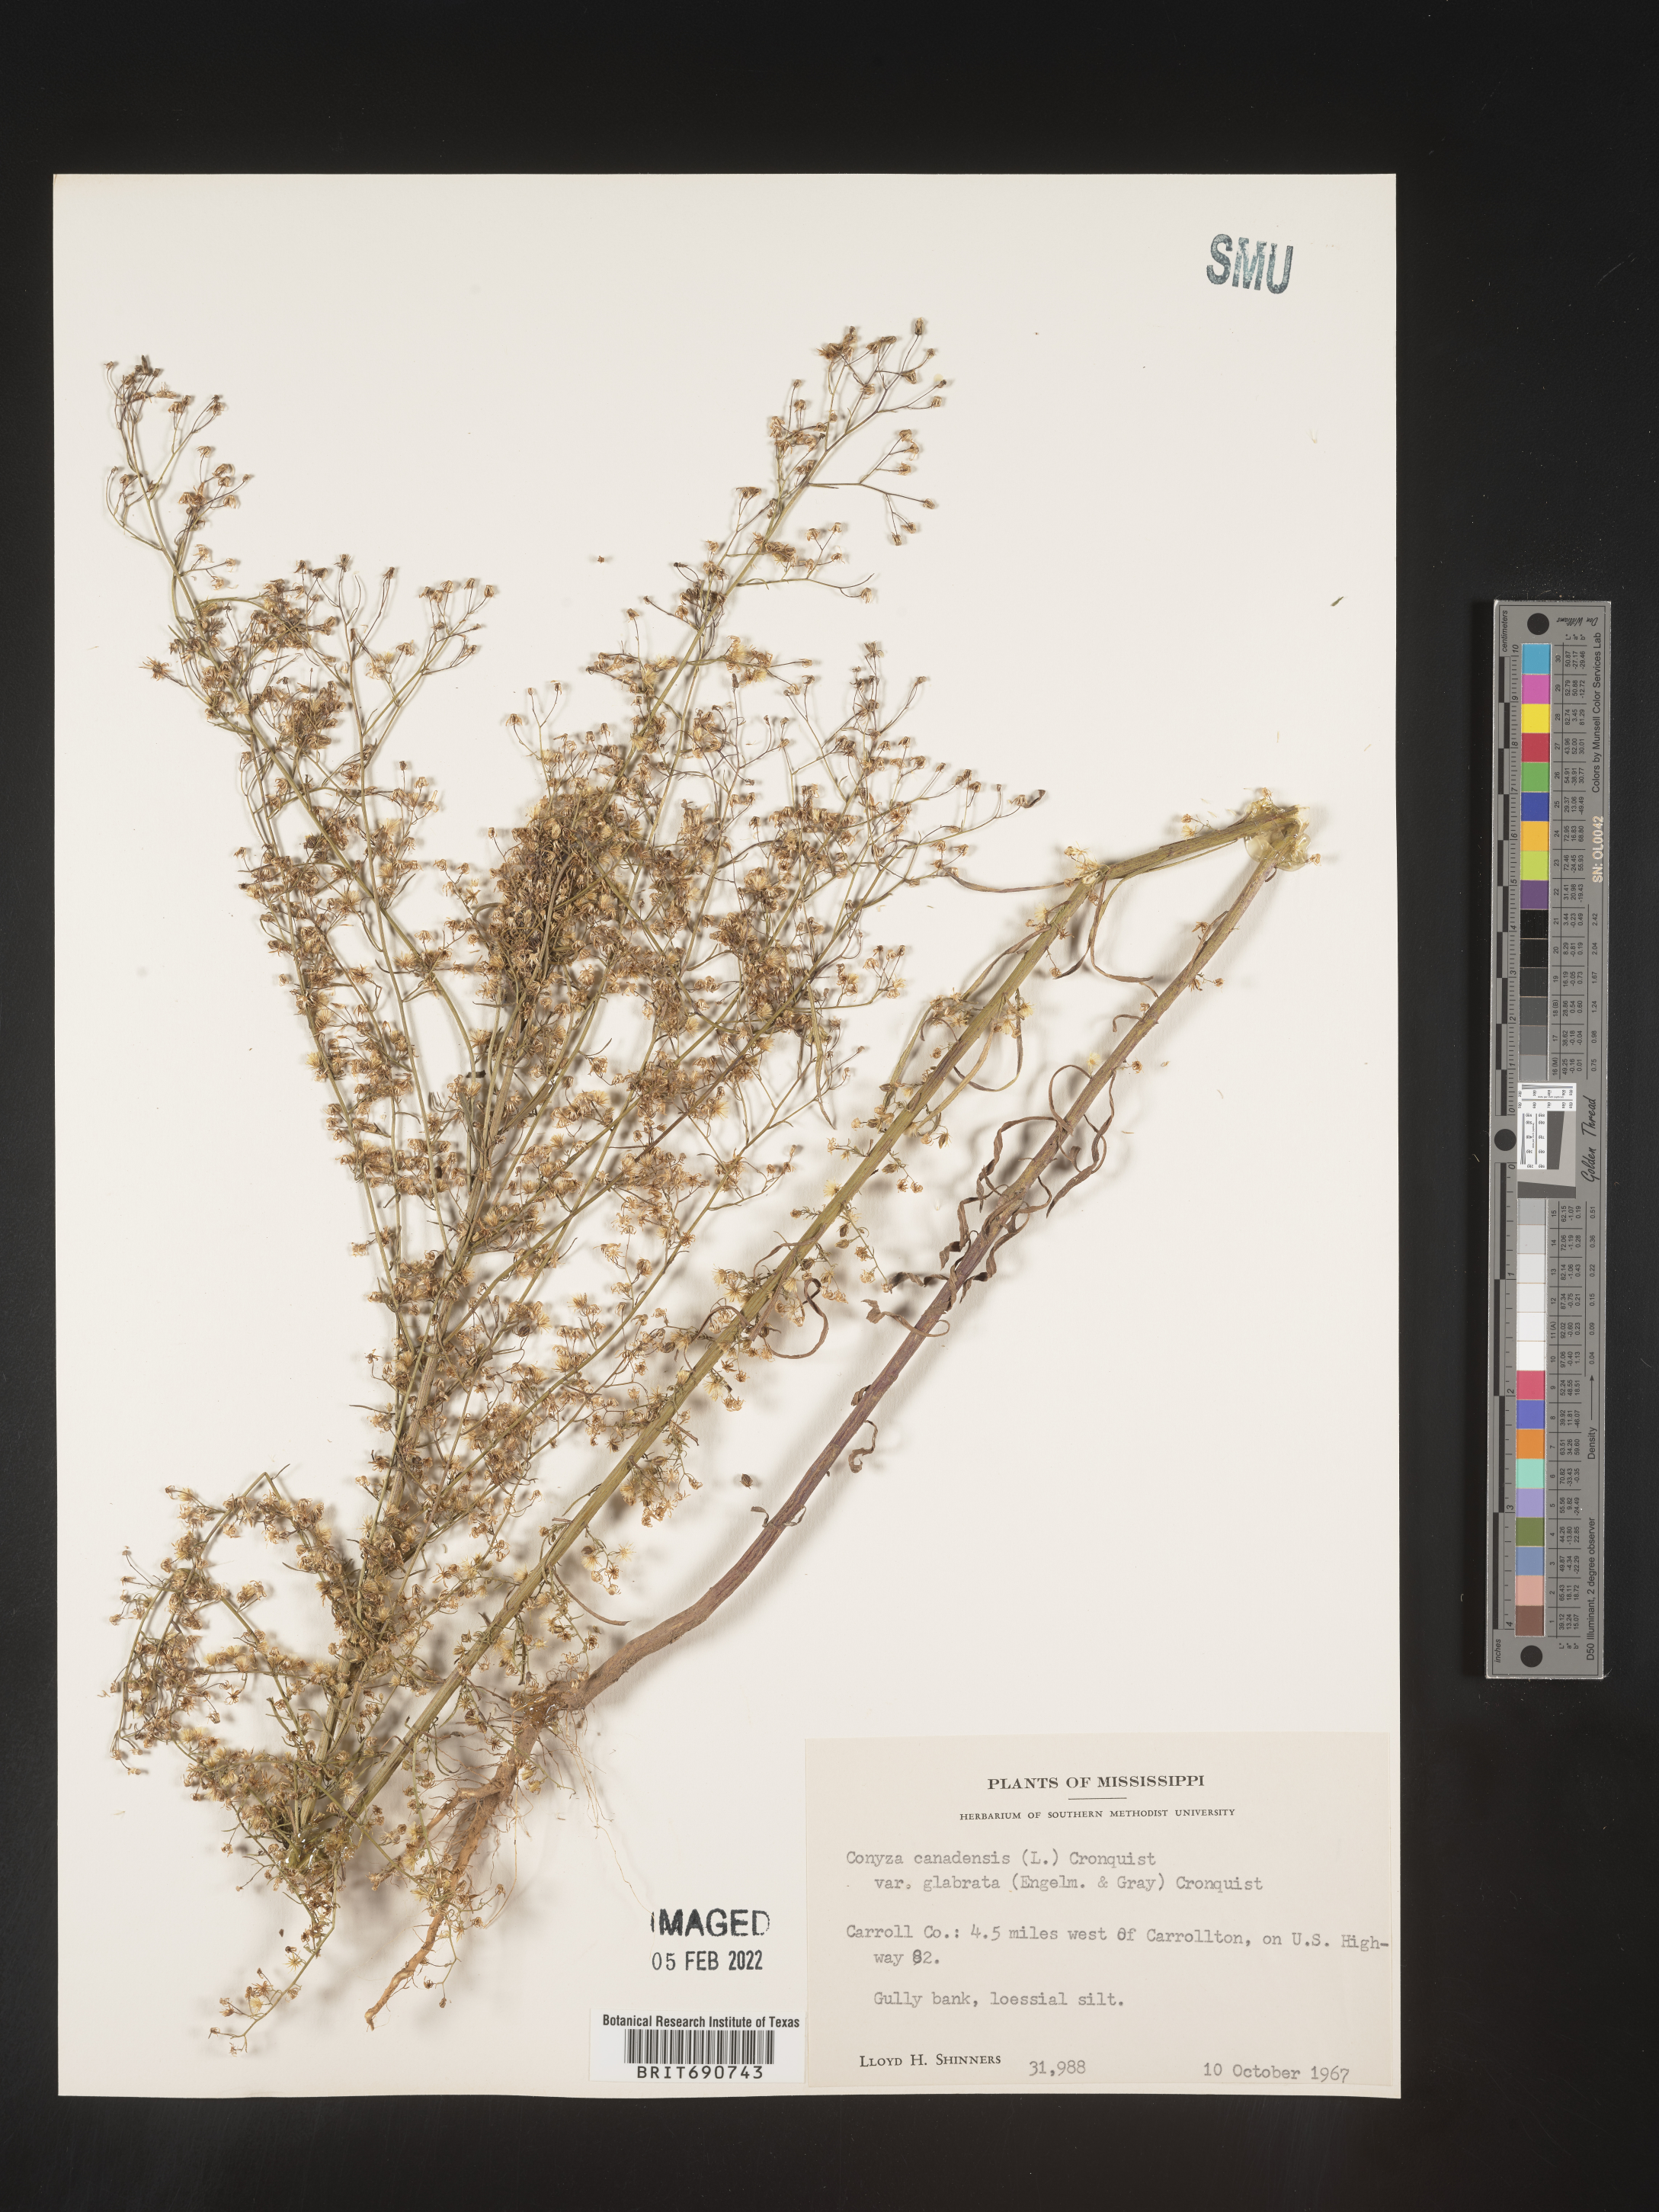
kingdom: Plantae
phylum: Tracheophyta
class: Magnoliopsida
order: Asterales
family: Asteraceae
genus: Erigeron
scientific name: Erigeron canadensis
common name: Canadian fleabane
